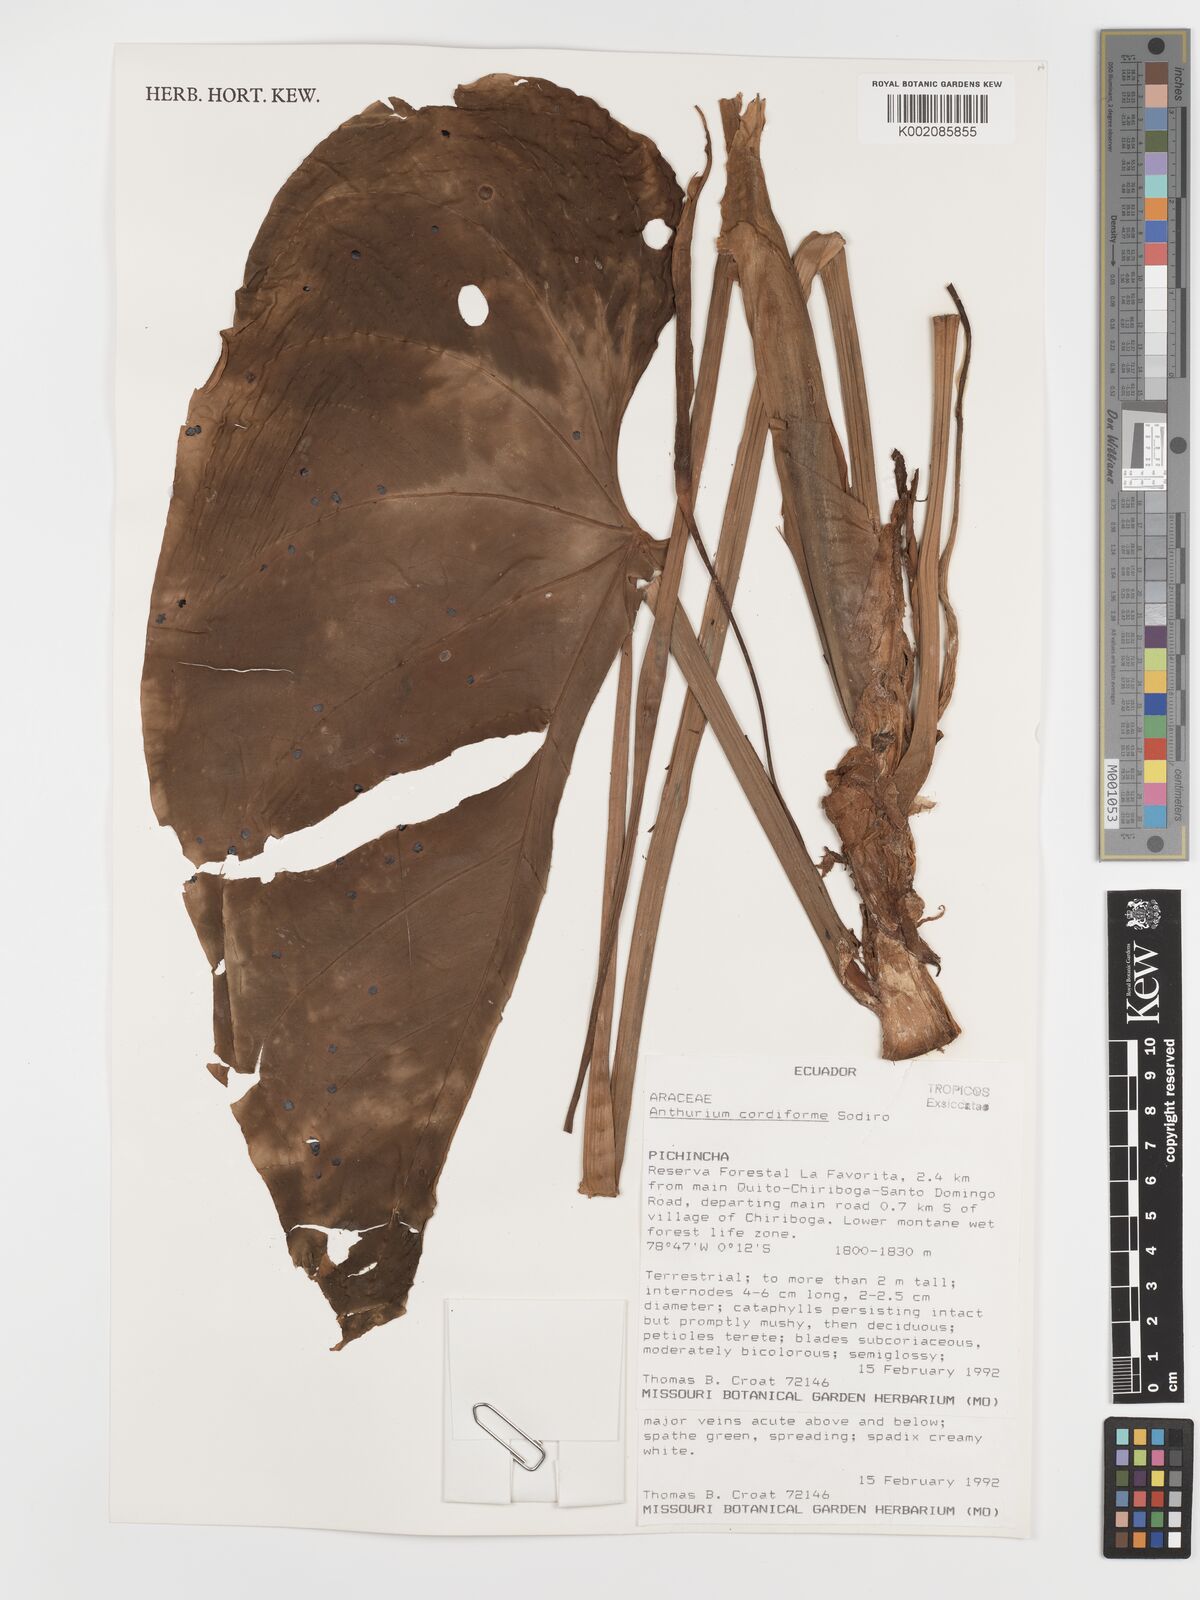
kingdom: Plantae
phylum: Tracheophyta
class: Liliopsida
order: Alismatales
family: Araceae
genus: Anthurium
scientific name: Anthurium cordiforme
